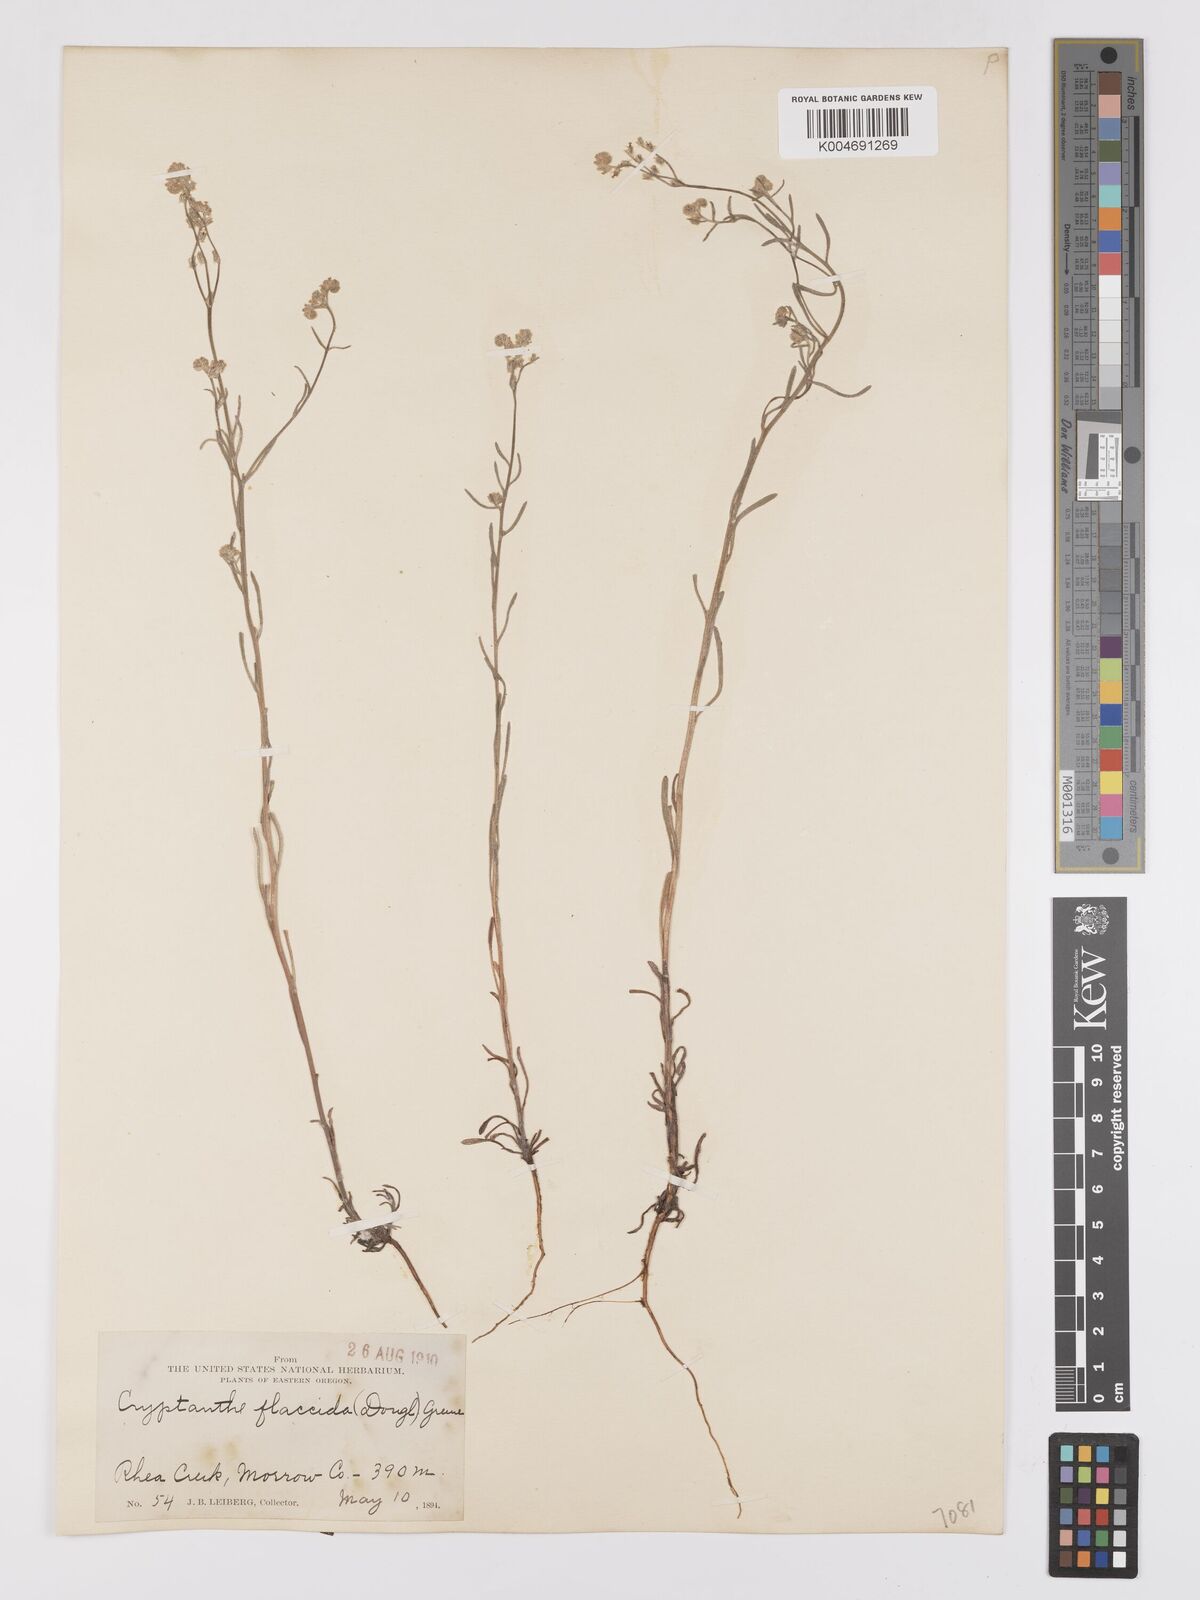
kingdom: Plantae
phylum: Tracheophyta
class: Magnoliopsida
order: Boraginales
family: Boraginaceae
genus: Cryptantha
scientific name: Cryptantha flaccida
